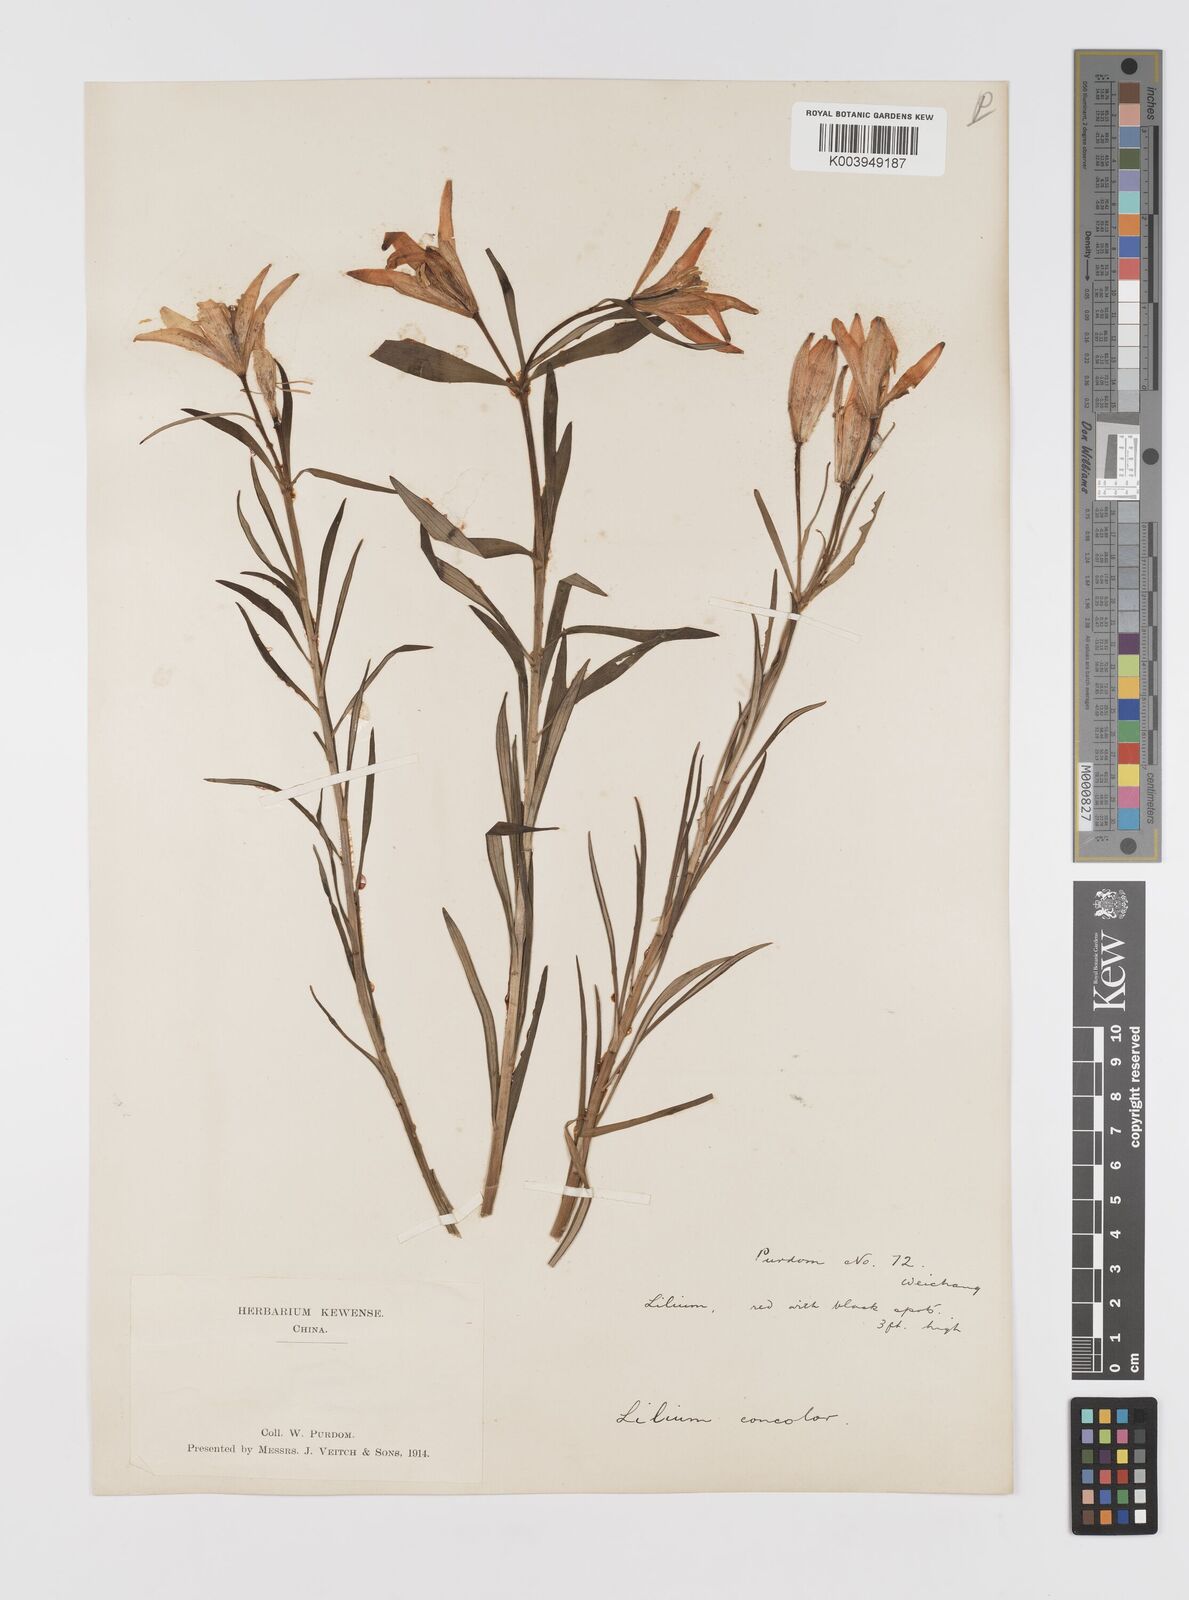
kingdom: Plantae
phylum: Tracheophyta
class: Liliopsida
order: Liliales
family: Liliaceae
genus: Lilium
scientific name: Lilium concolor
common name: Morning-star lily
